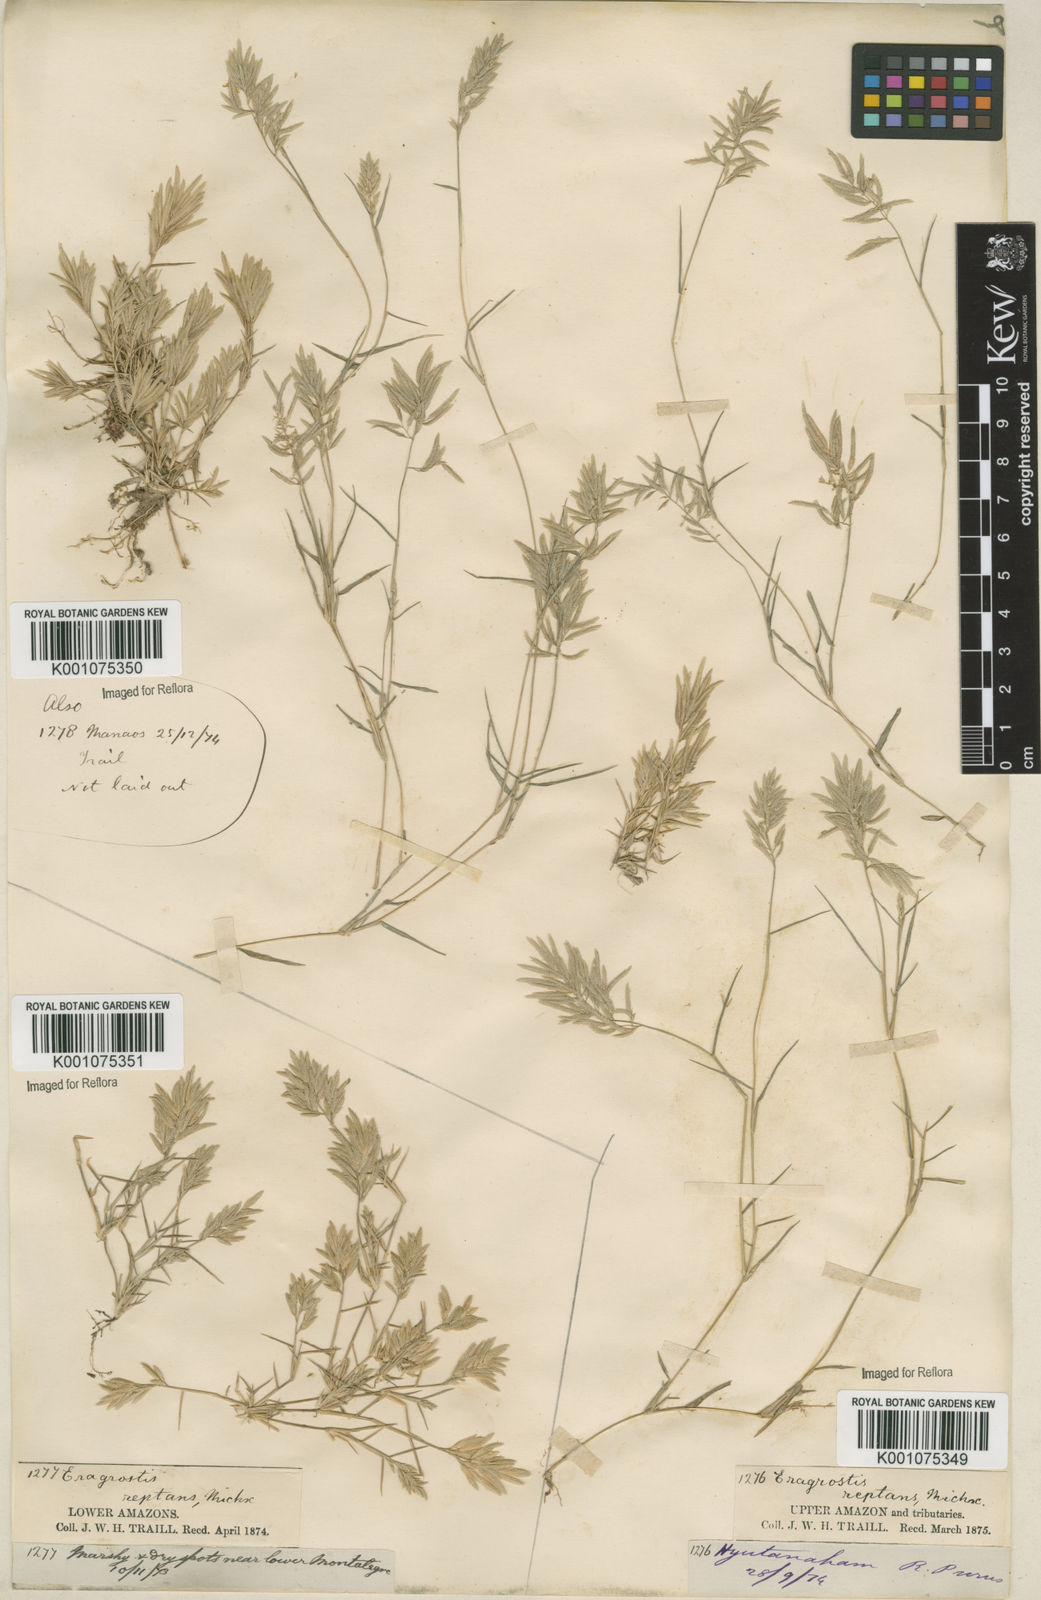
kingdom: Plantae
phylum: Tracheophyta
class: Liliopsida
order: Poales
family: Poaceae
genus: Eragrostis
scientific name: Eragrostis
